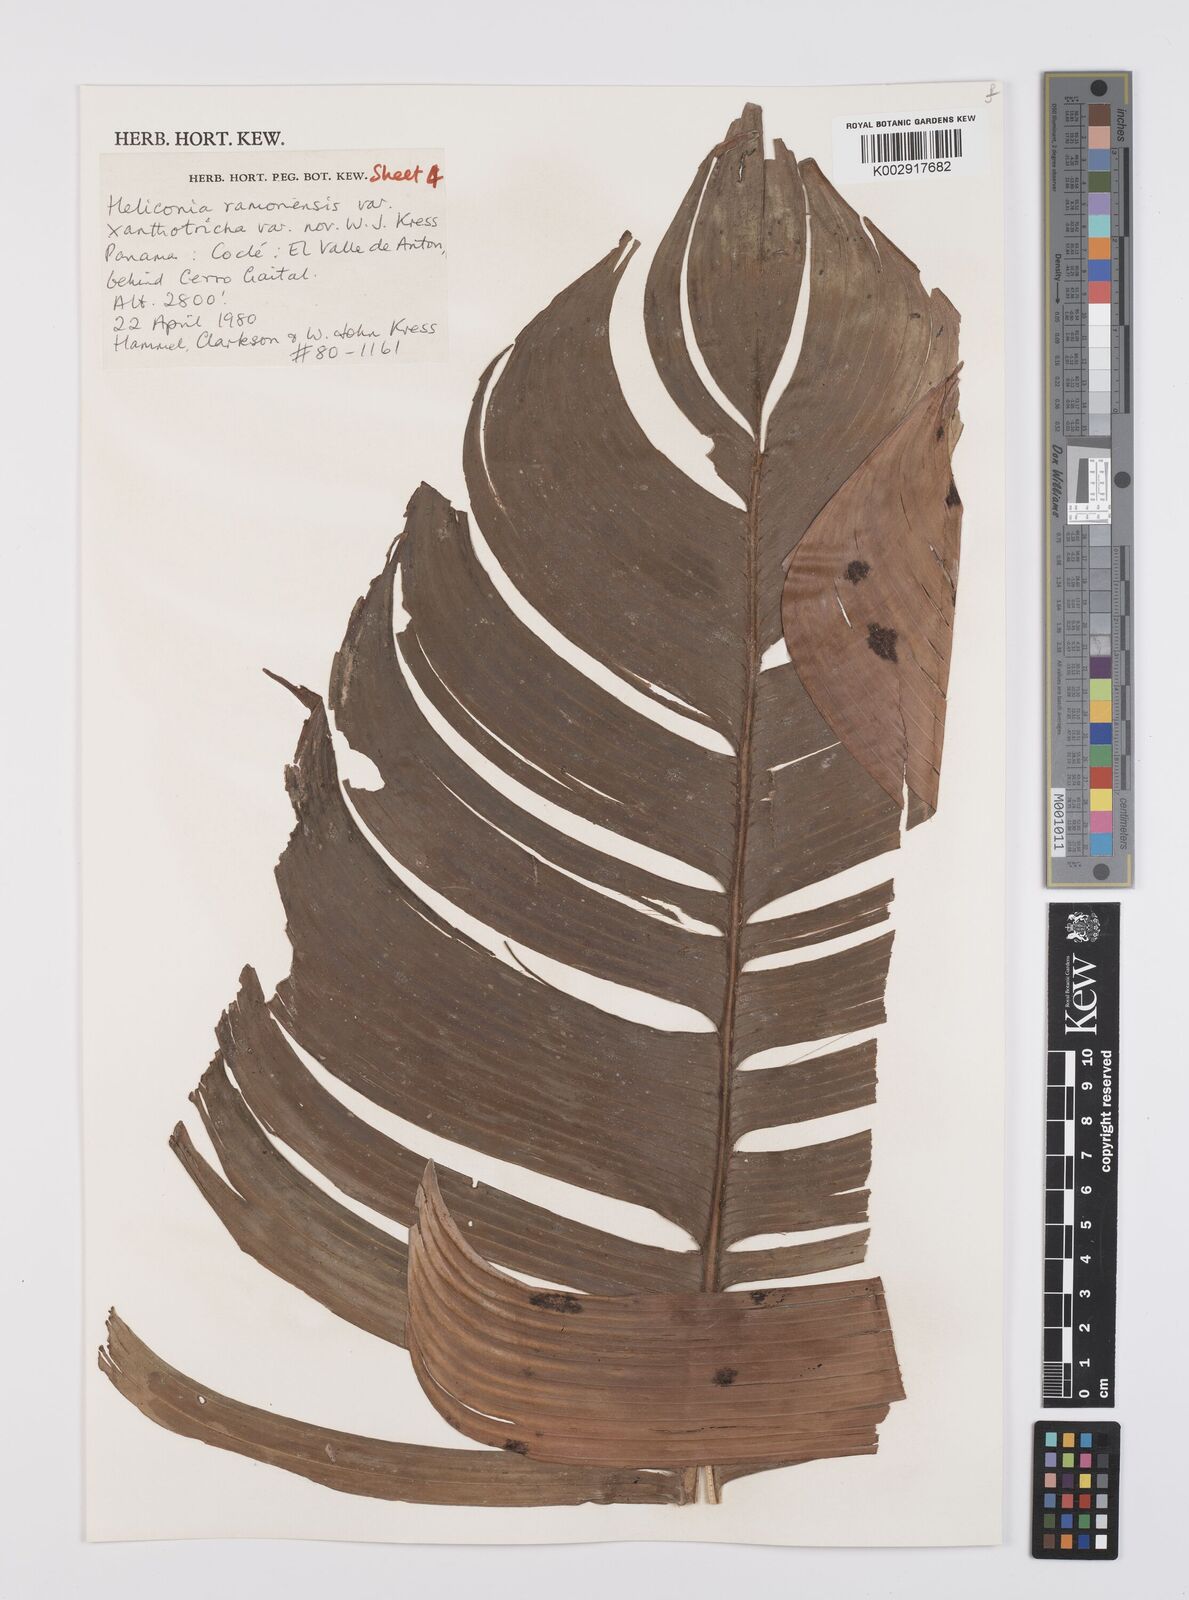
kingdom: Plantae
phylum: Tracheophyta
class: Liliopsida
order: Zingiberales
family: Heliconiaceae
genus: Heliconia
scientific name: Heliconia ramonensis
